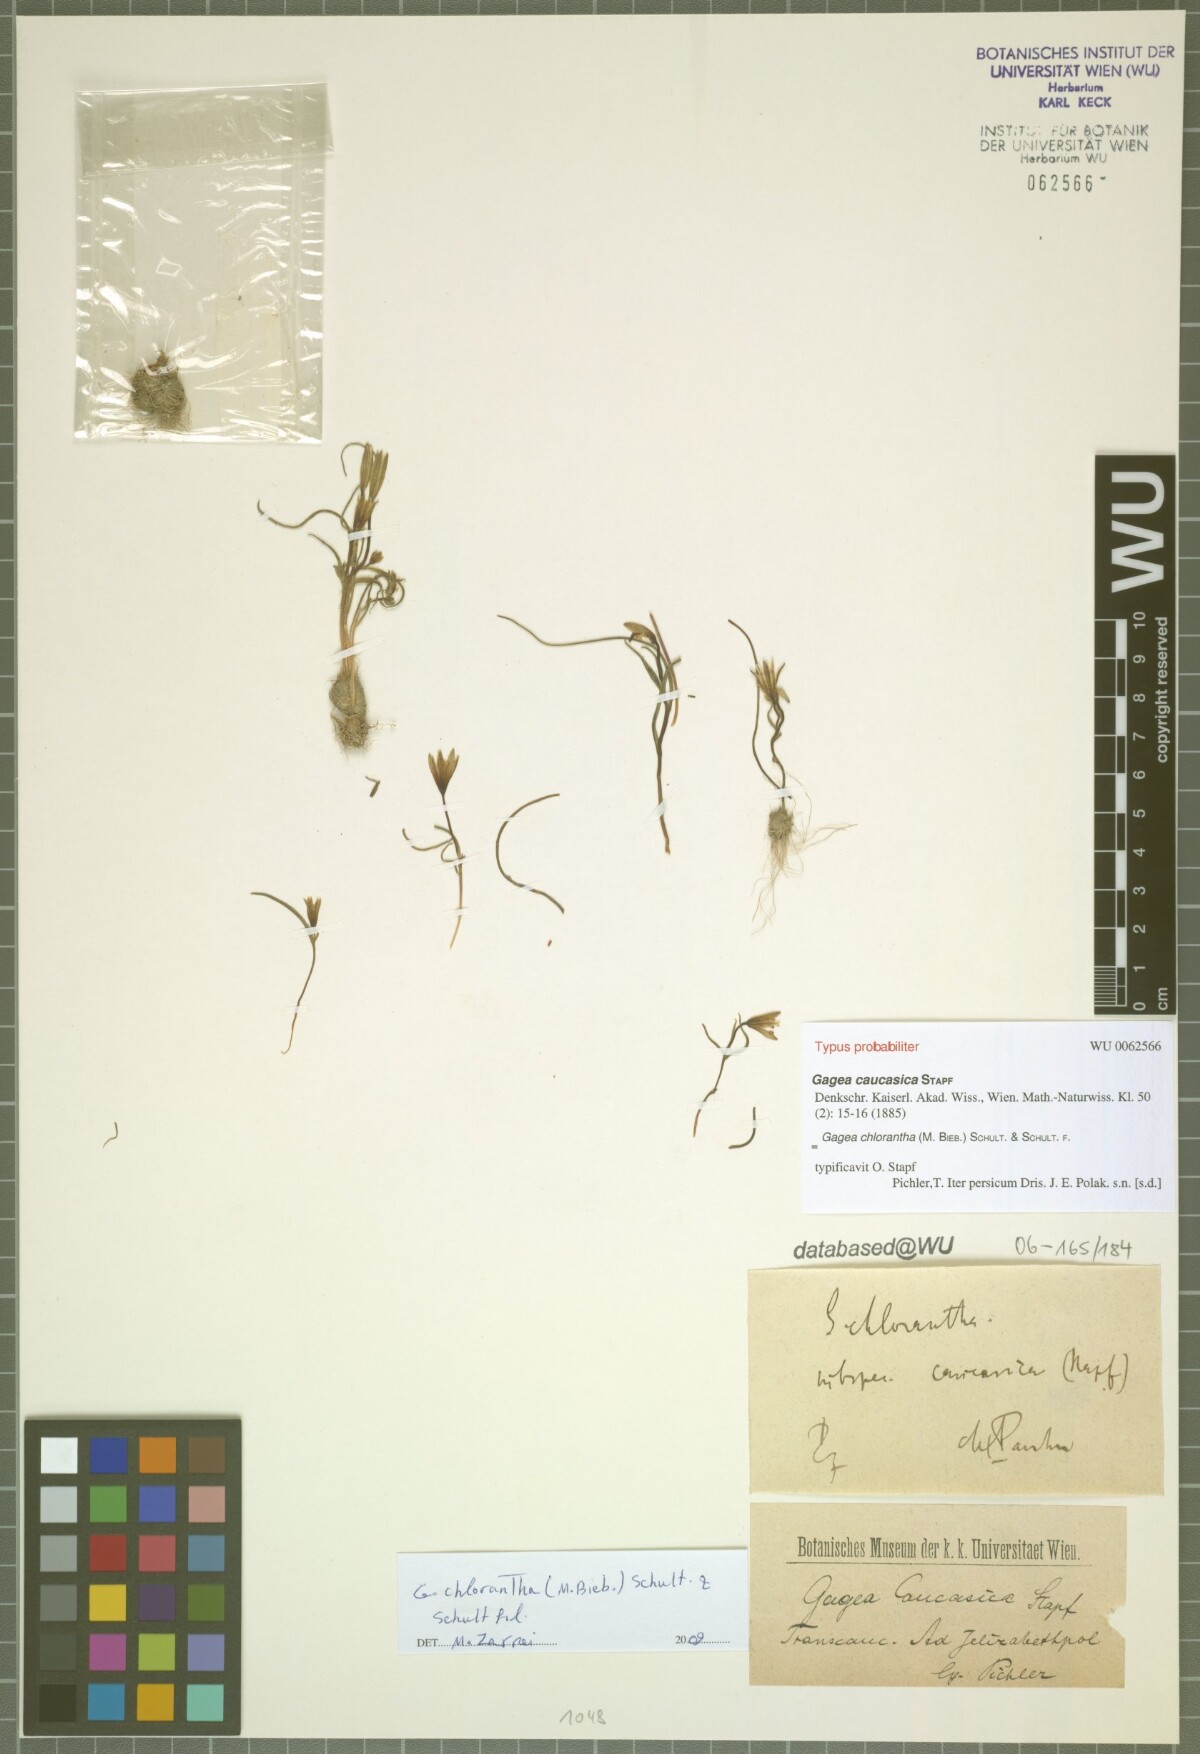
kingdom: Plantae
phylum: Tracheophyta
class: Liliopsida
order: Liliales
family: Liliaceae
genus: Gagea
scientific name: Gagea chlorantha
